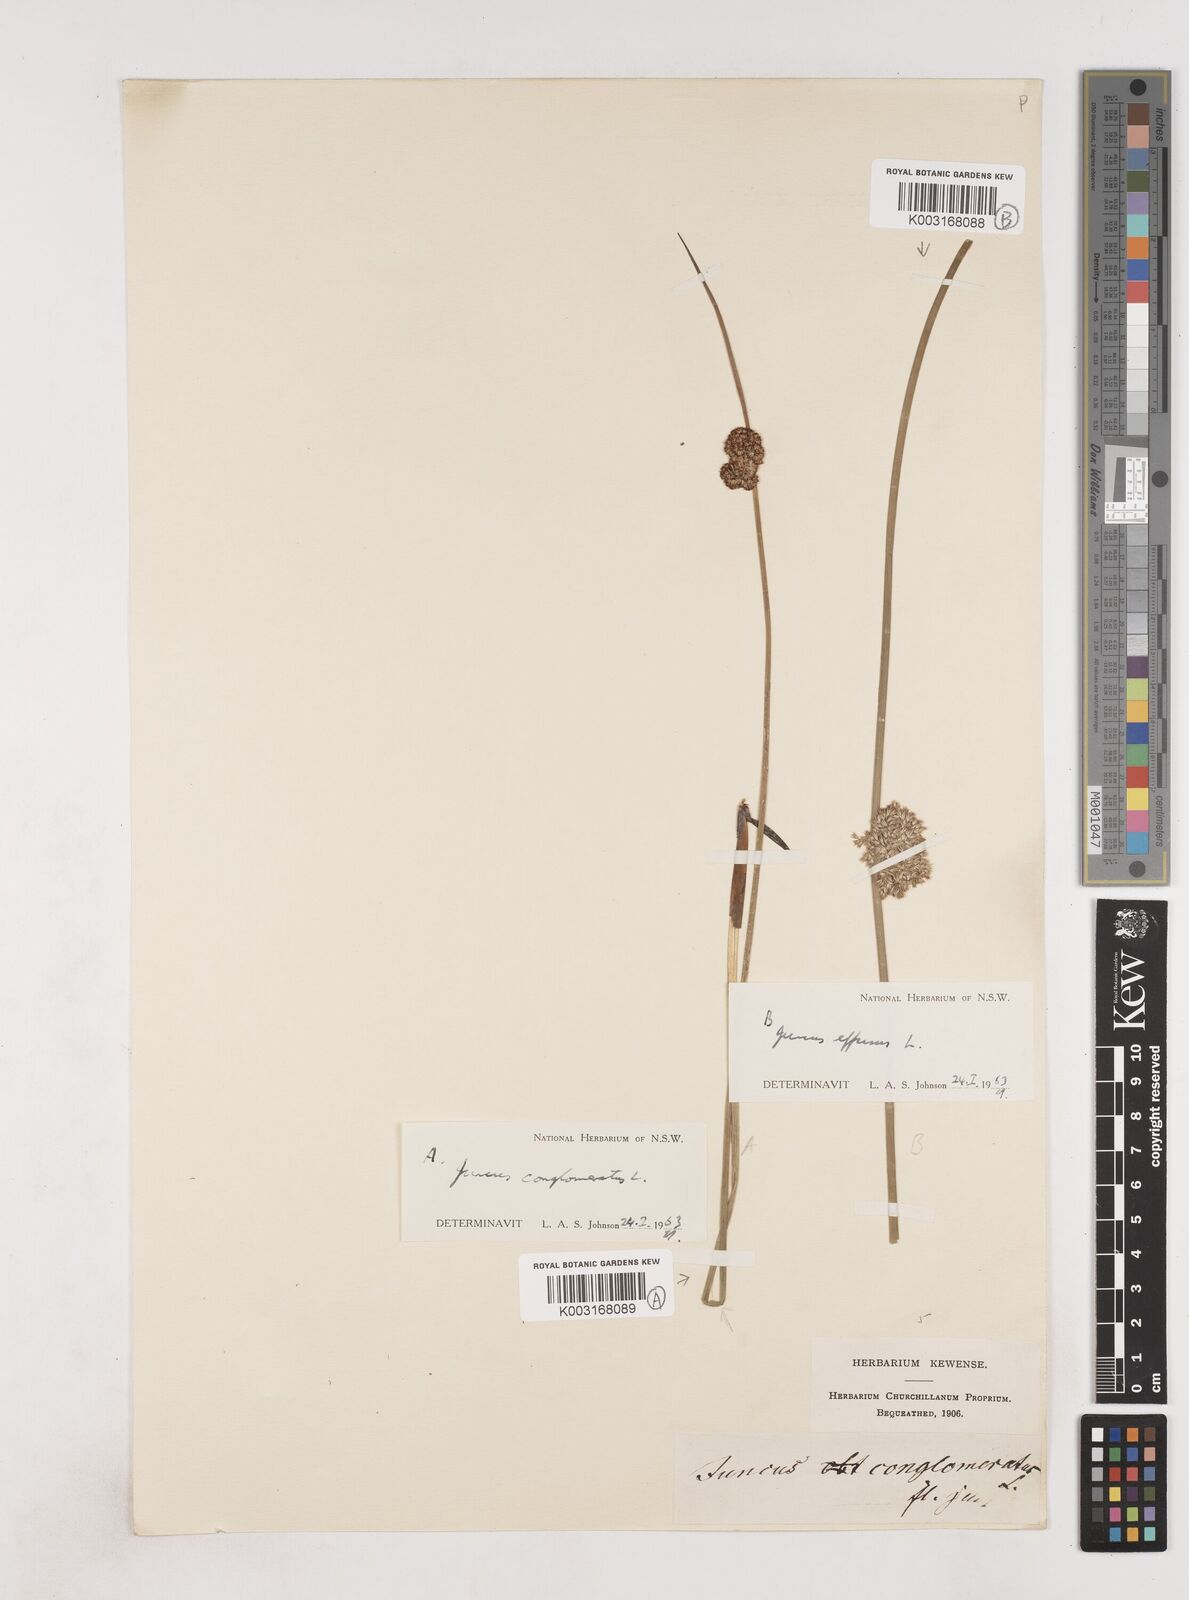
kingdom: Plantae
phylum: Tracheophyta
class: Liliopsida
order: Poales
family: Juncaceae
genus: Juncus
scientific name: Juncus conglomeratus
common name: Compact rush
